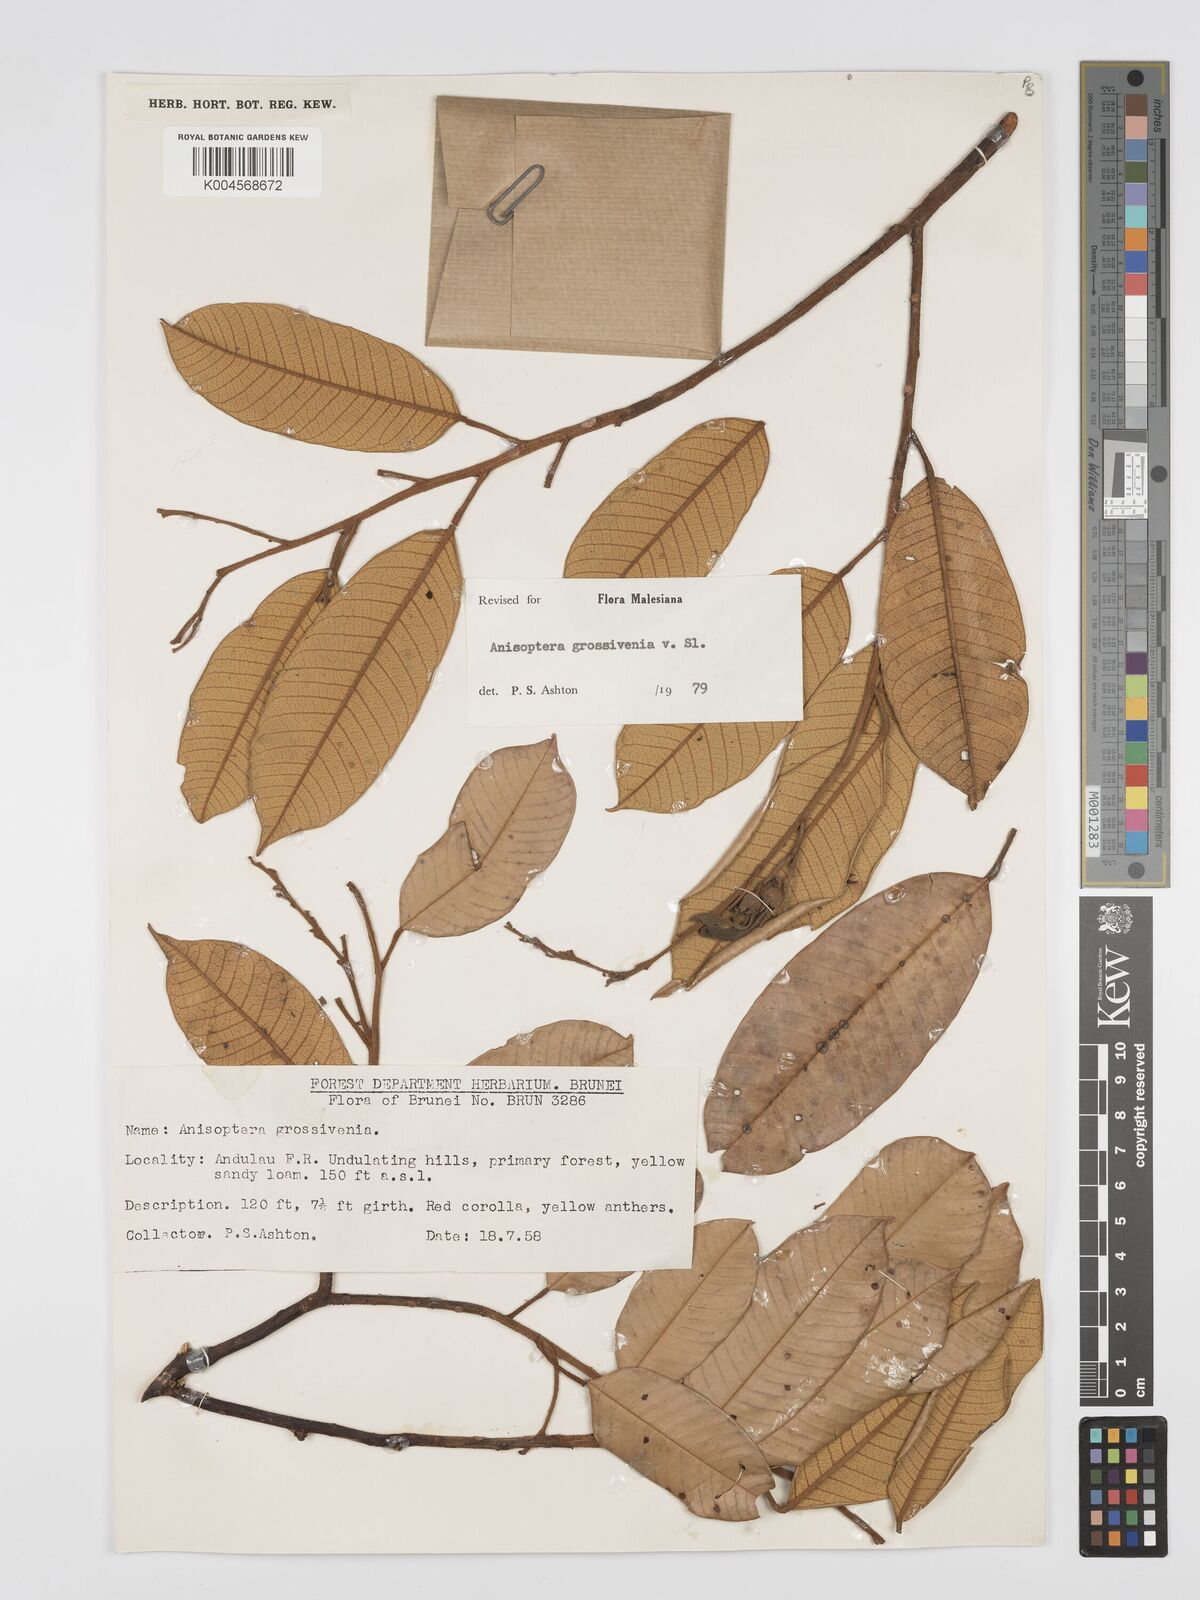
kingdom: Plantae
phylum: Tracheophyta
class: Magnoliopsida
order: Malvales
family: Dipterocarpaceae
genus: Anisoptera
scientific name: Anisoptera grossivenia
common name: Krabak
